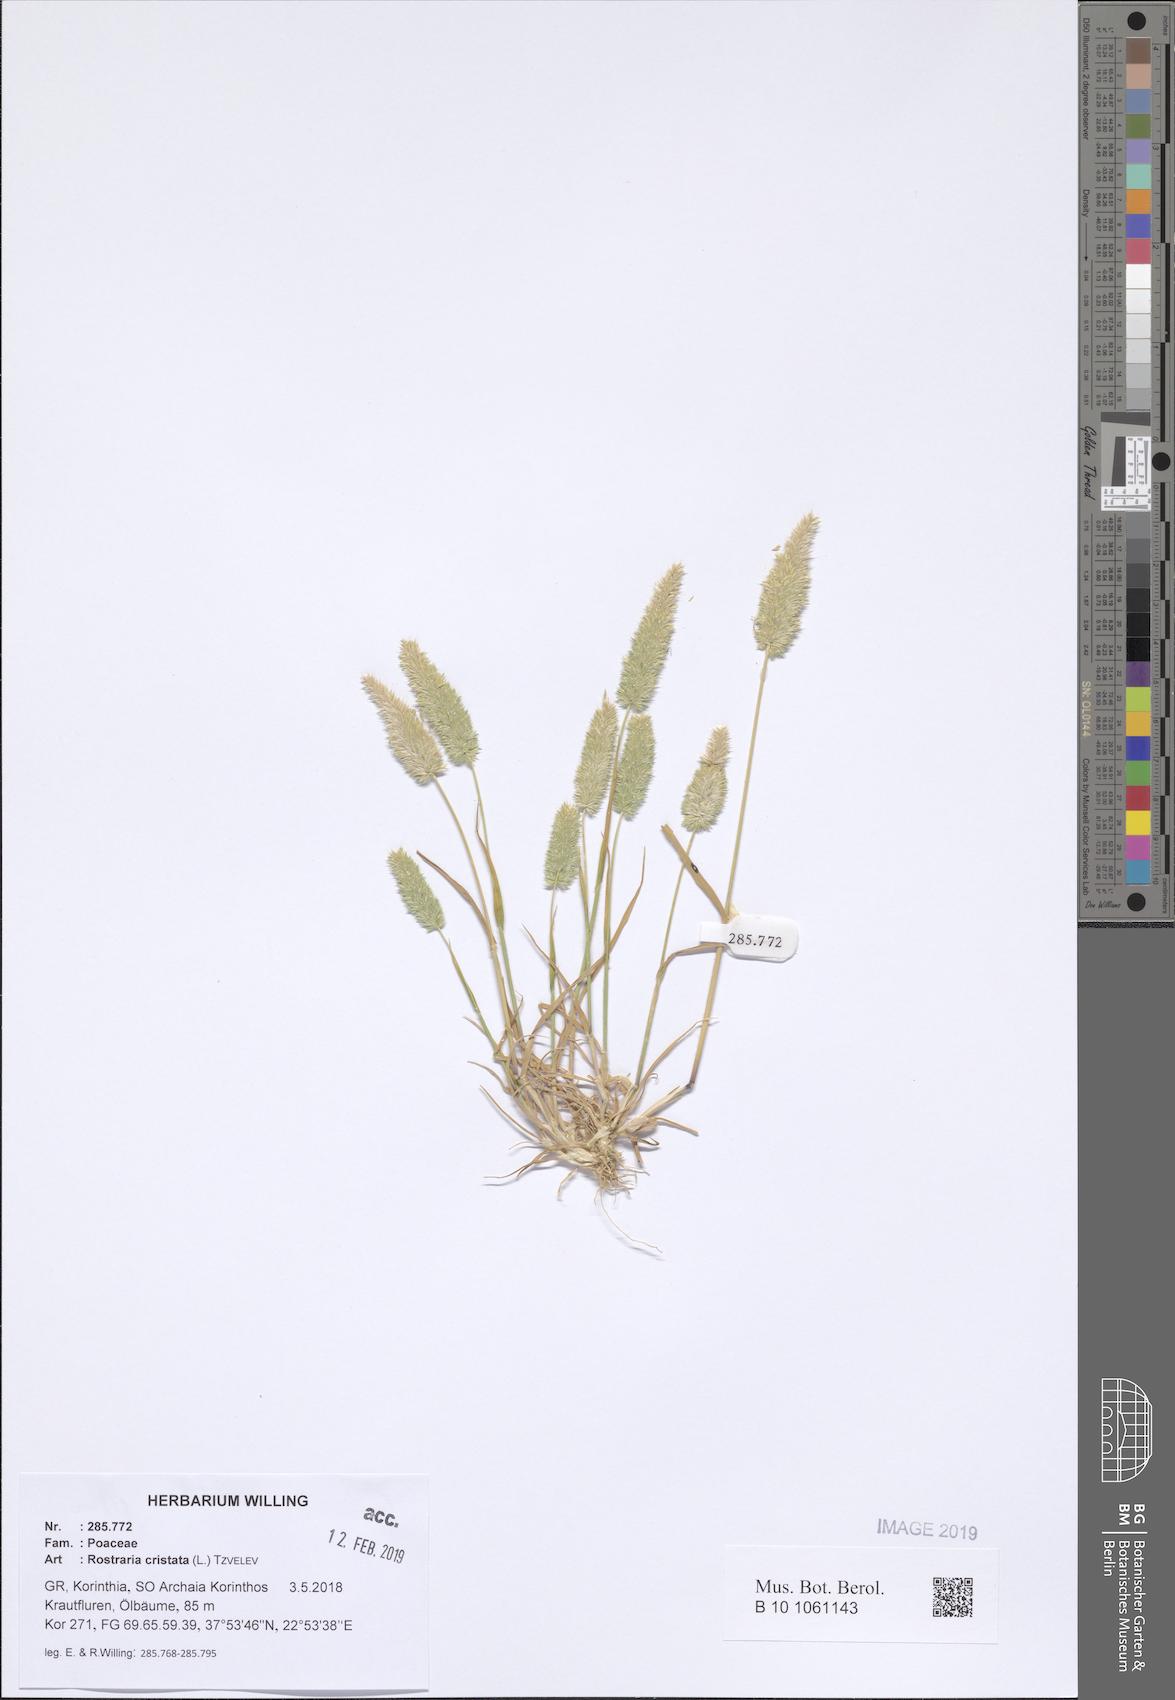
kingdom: Plantae
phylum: Tracheophyta
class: Liliopsida
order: Poales
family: Poaceae
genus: Rostraria
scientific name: Rostraria cristata
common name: Mediterranean hair-grass
